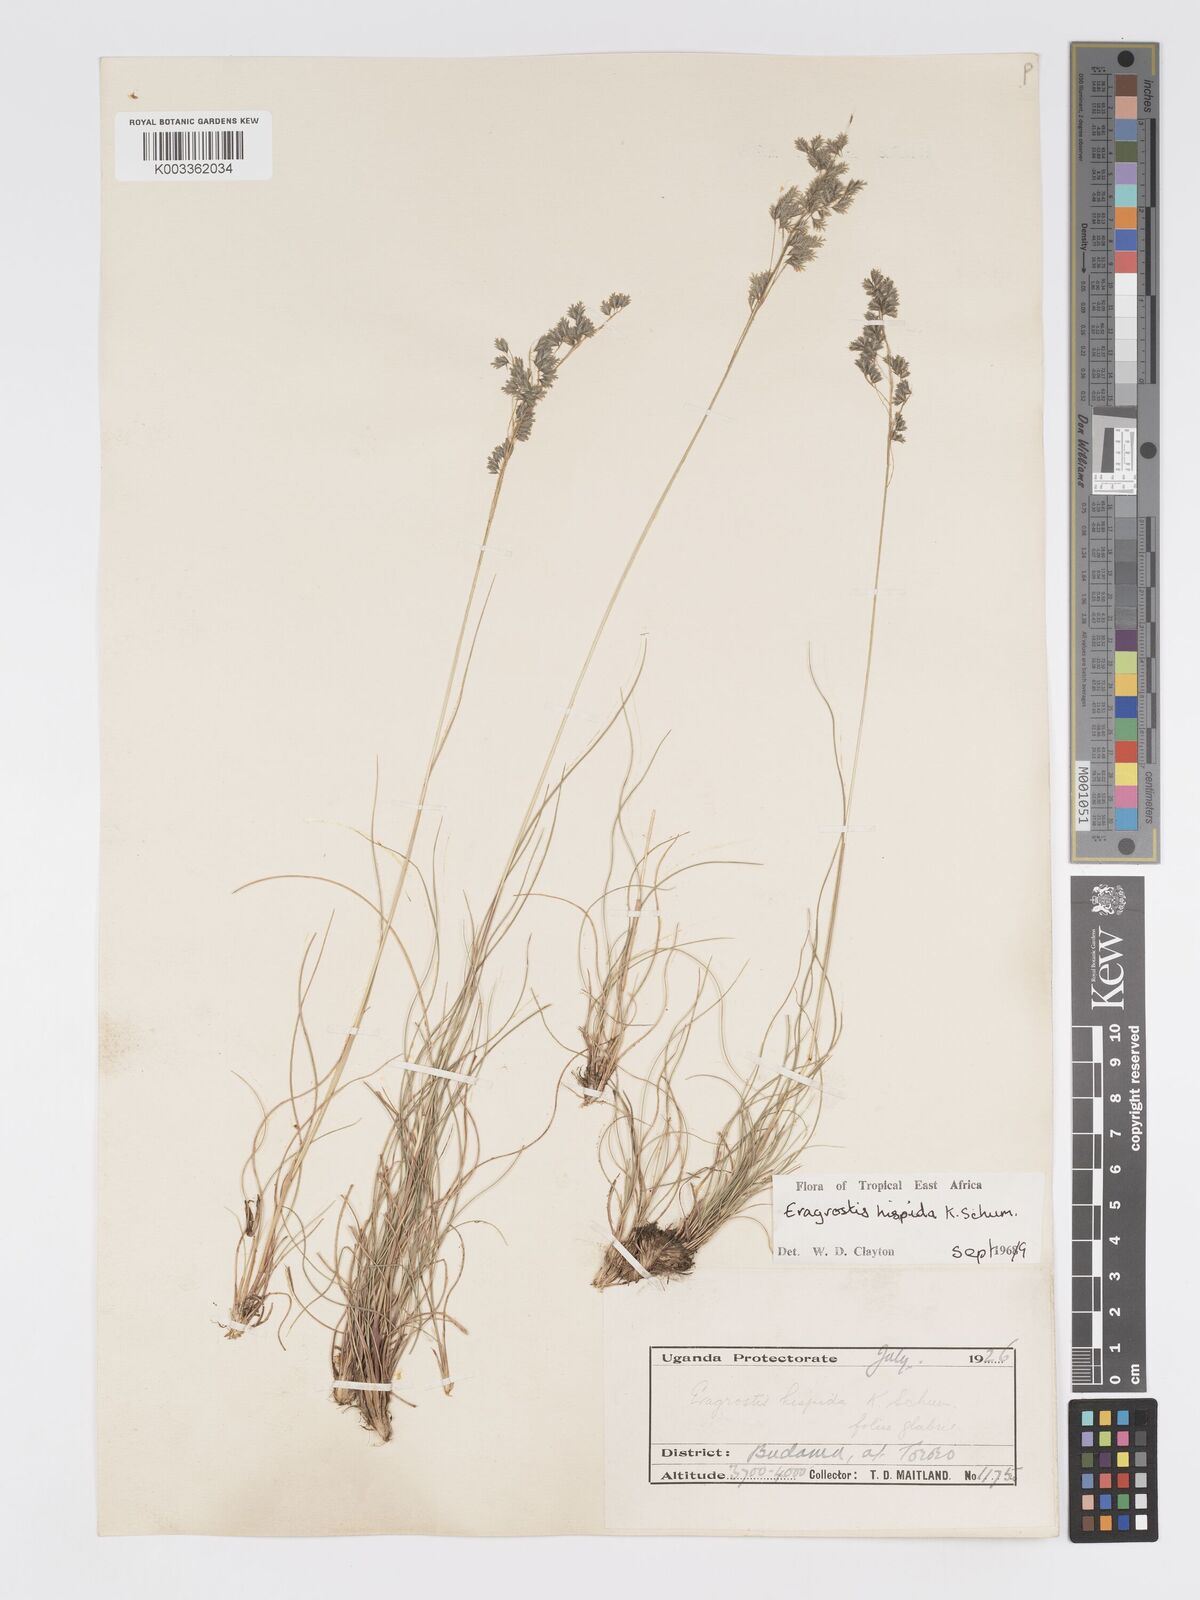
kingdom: Plantae
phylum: Tracheophyta
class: Liliopsida
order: Poales
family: Poaceae
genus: Eragrostis
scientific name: Eragrostis hispida
